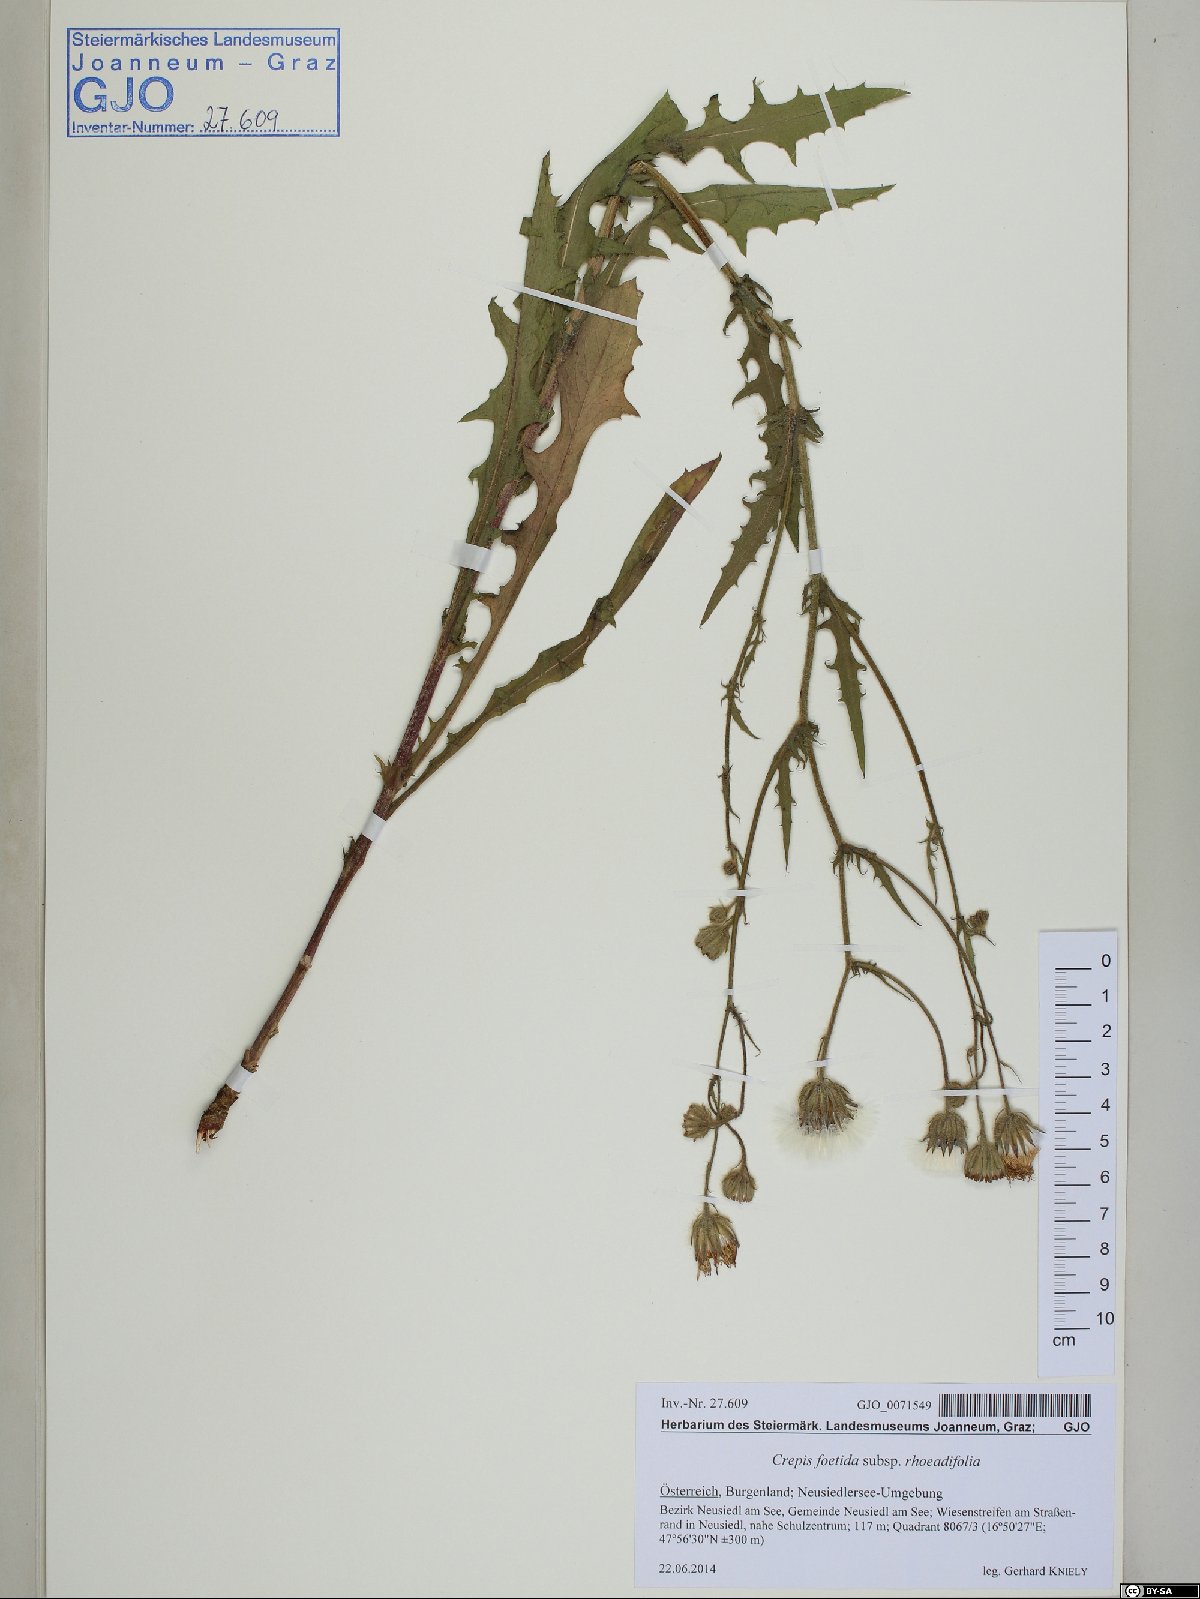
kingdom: Plantae
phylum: Tracheophyta
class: Magnoliopsida
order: Asterales
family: Asteraceae
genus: Crepis
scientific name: Crepis foetida
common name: Stinking hawk's-beard
